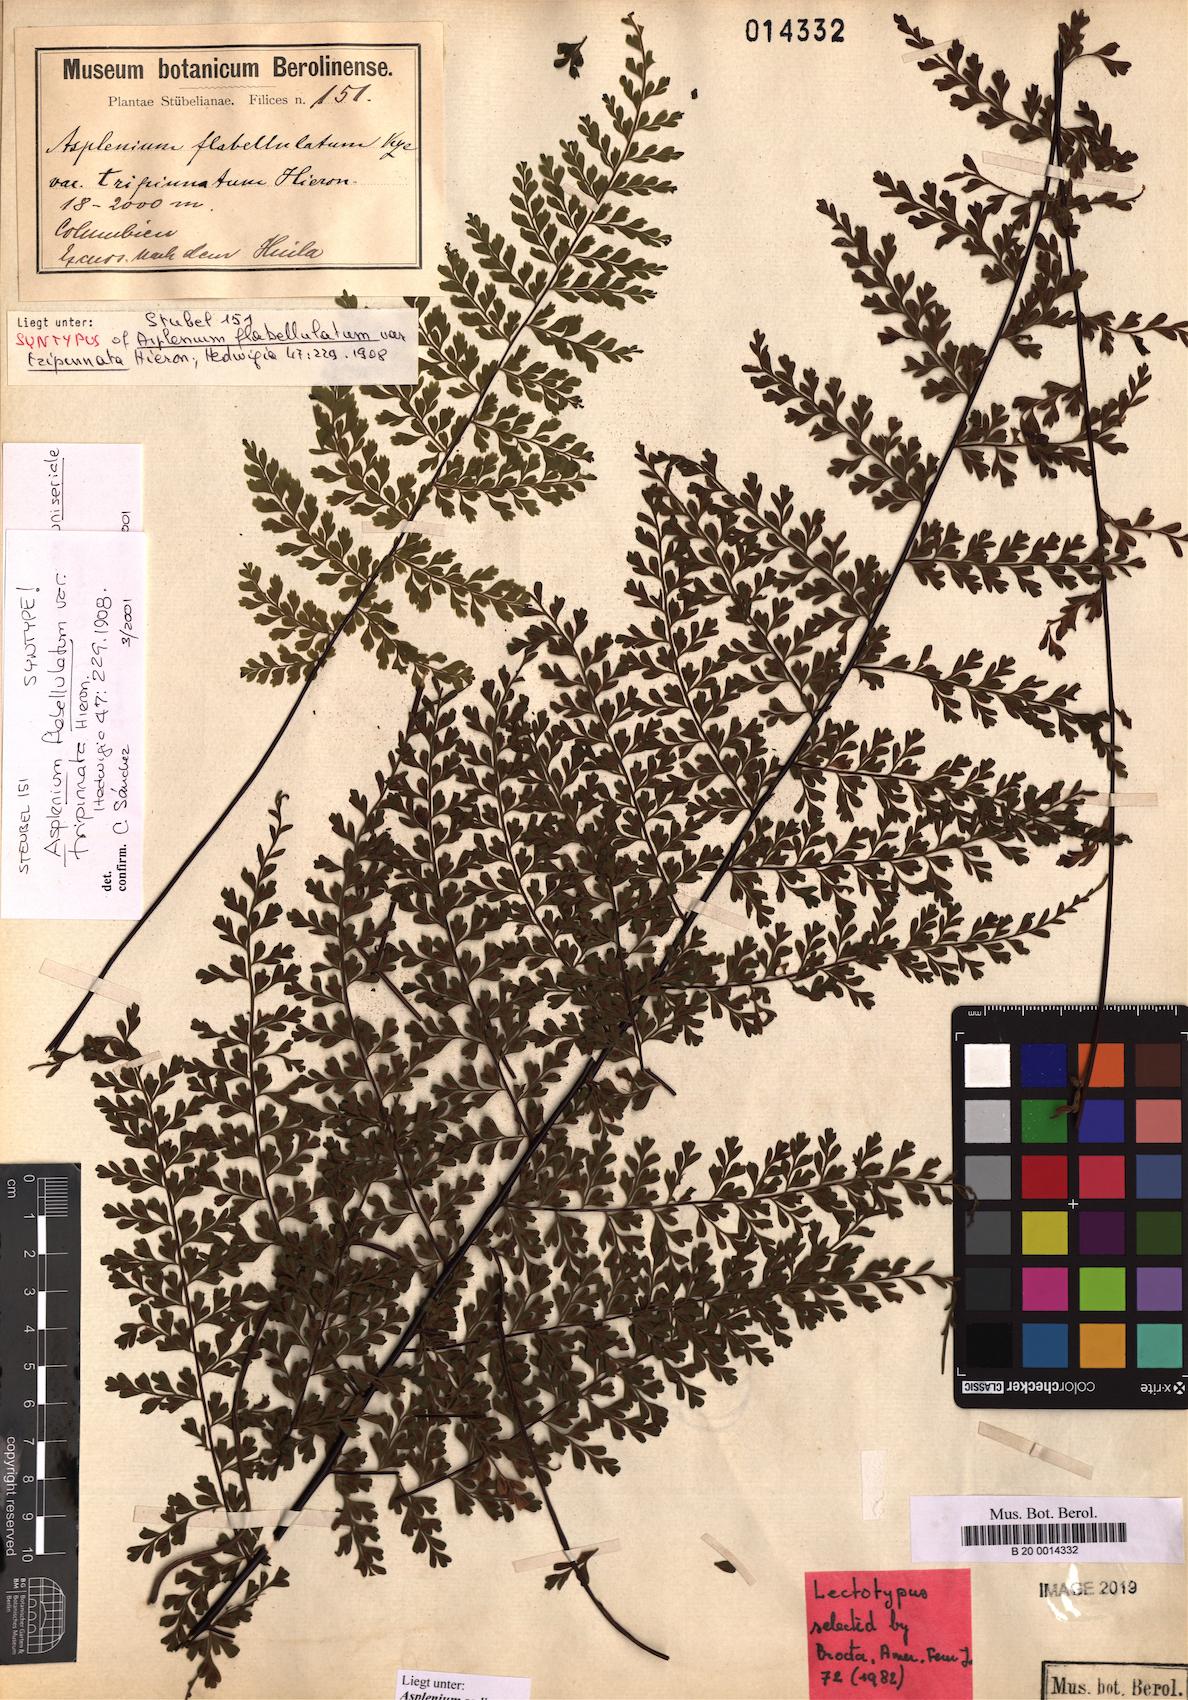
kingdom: Plantae
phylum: Tracheophyta
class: Polypodiopsida
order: Polypodiales
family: Aspleniaceae
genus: Asplenium
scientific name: Asplenium radicans
